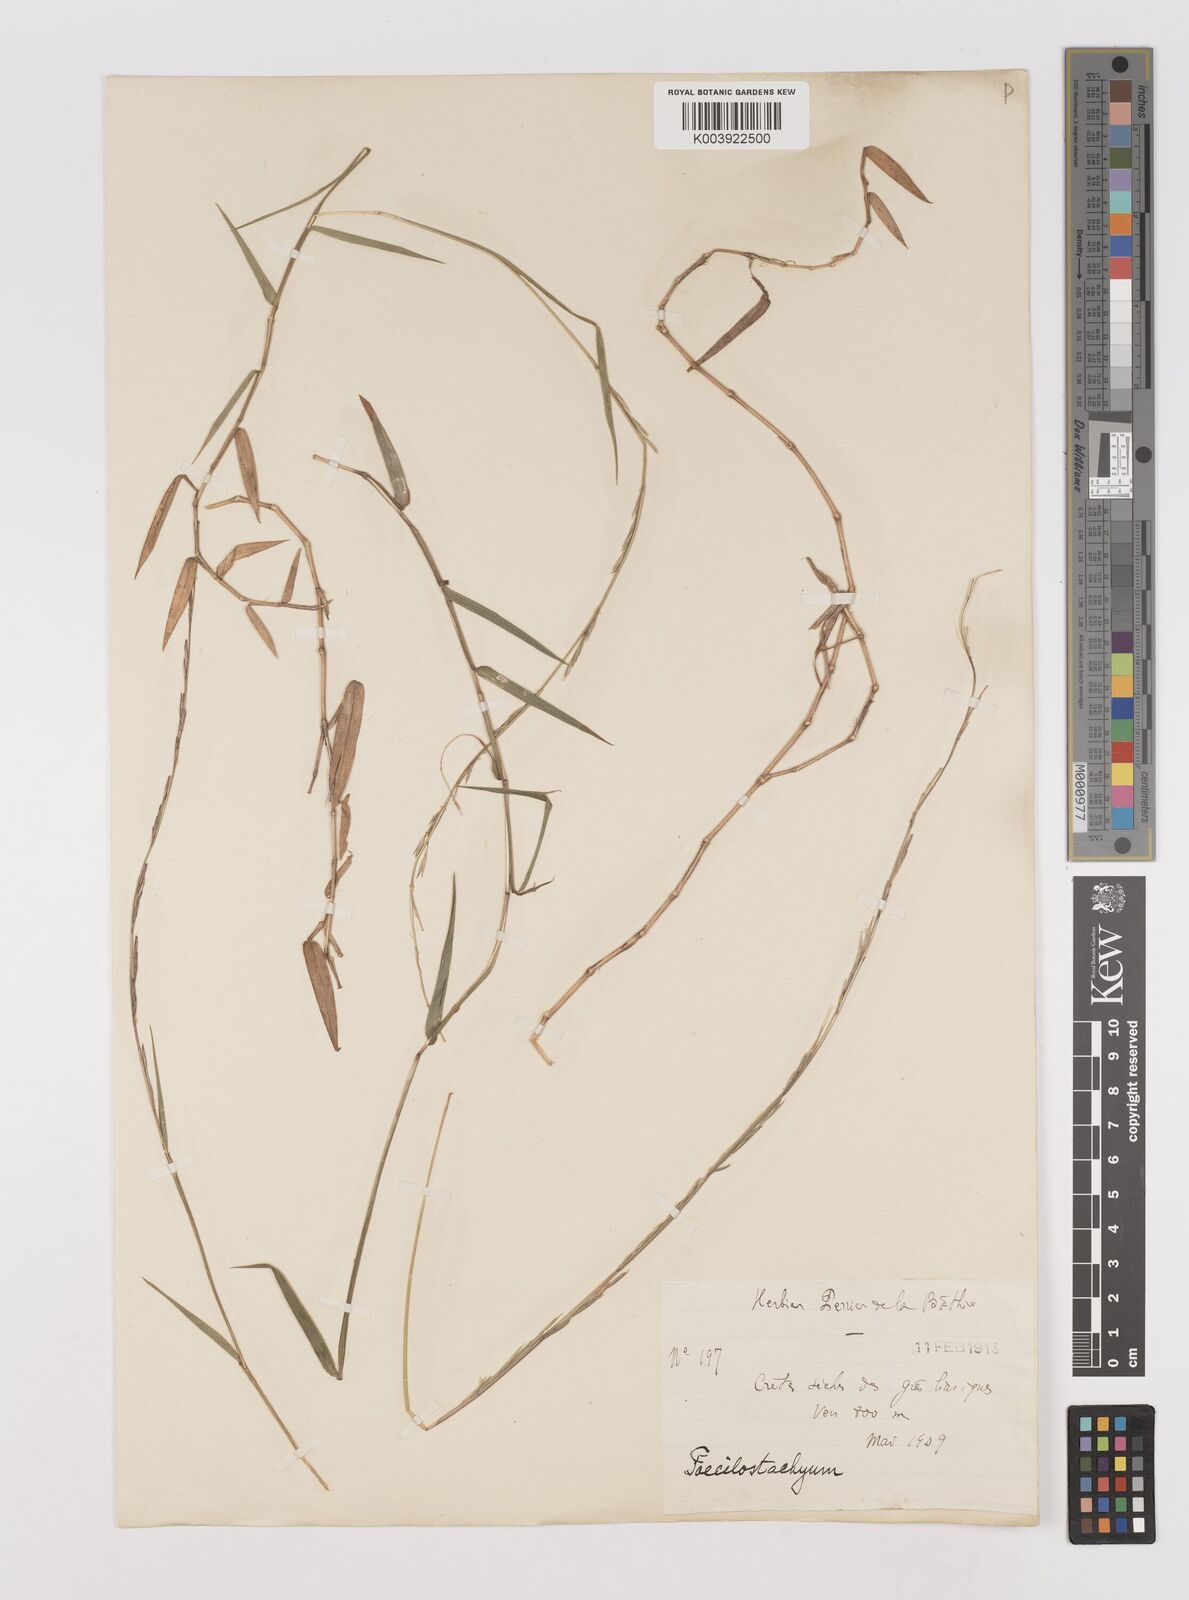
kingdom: Plantae
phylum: Tracheophyta
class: Liliopsida
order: Poales
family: Poaceae
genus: Poecilostachys
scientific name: Poecilostachys
